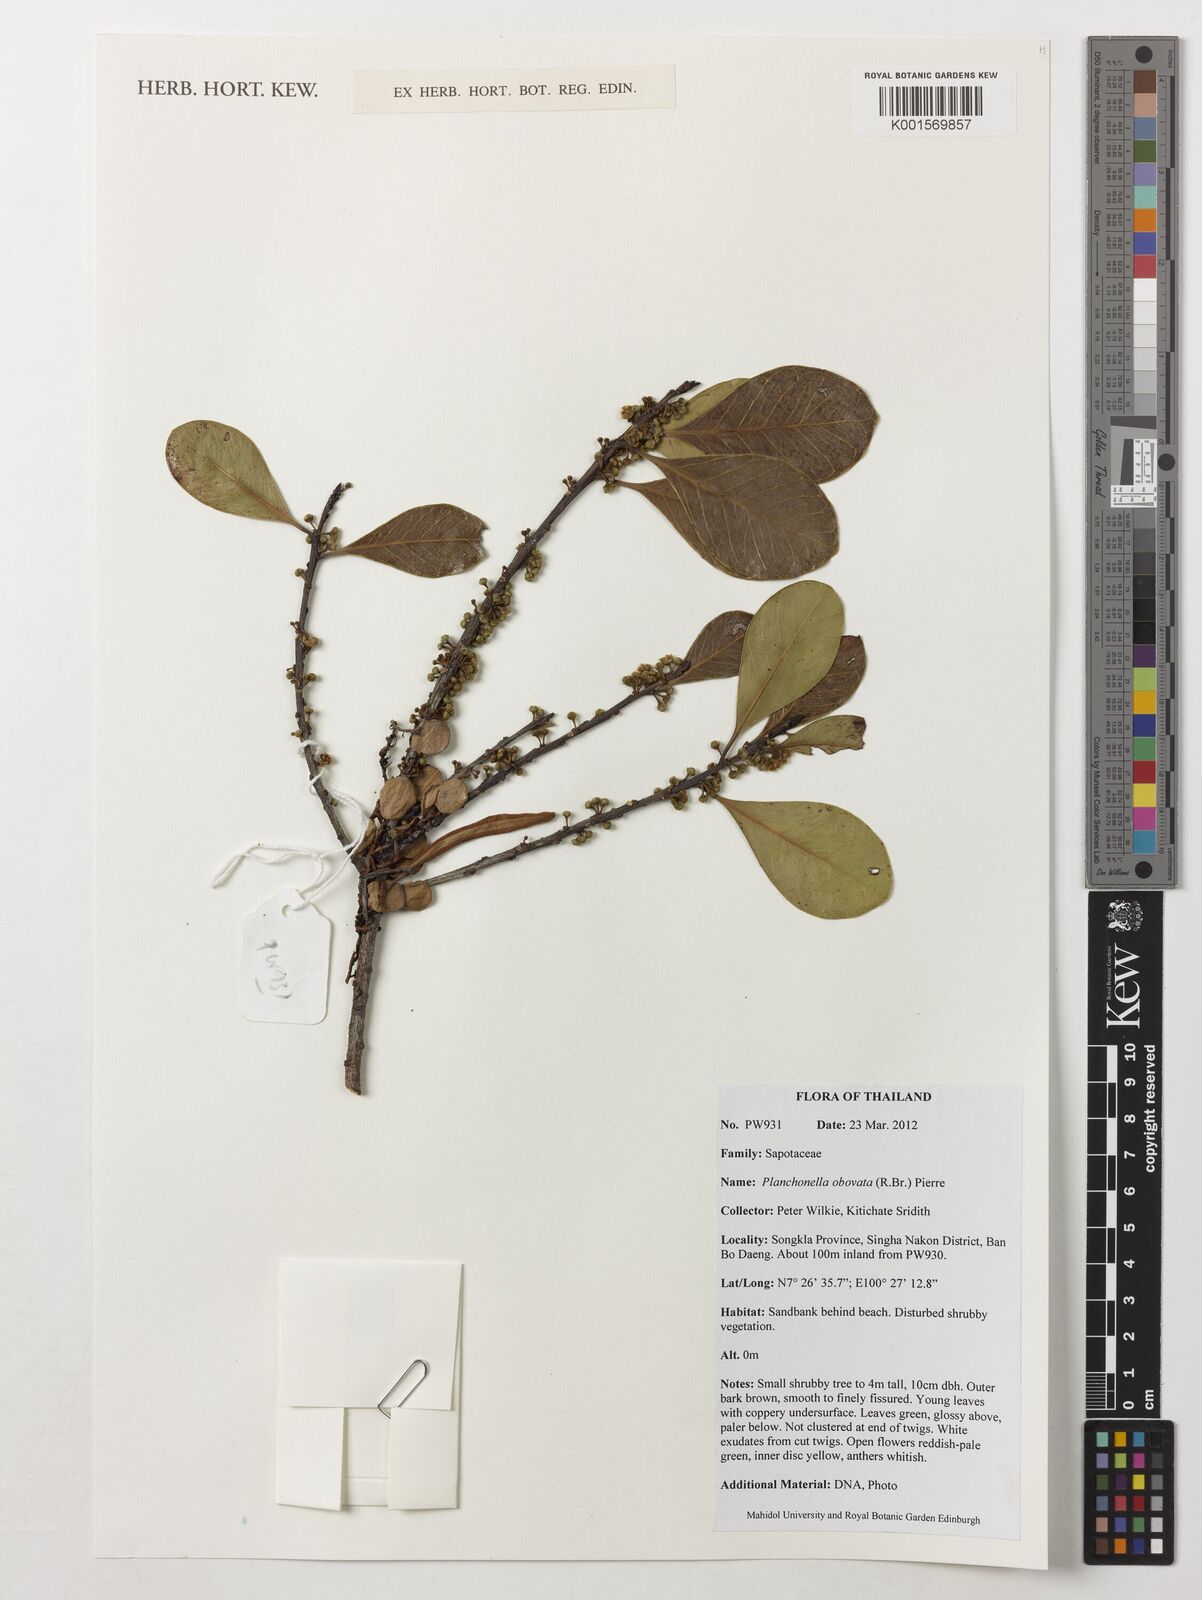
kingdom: Plantae
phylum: Tracheophyta
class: Magnoliopsida
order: Ericales
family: Sapotaceae
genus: Planchonella
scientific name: Planchonella obovata
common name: Black-ash
